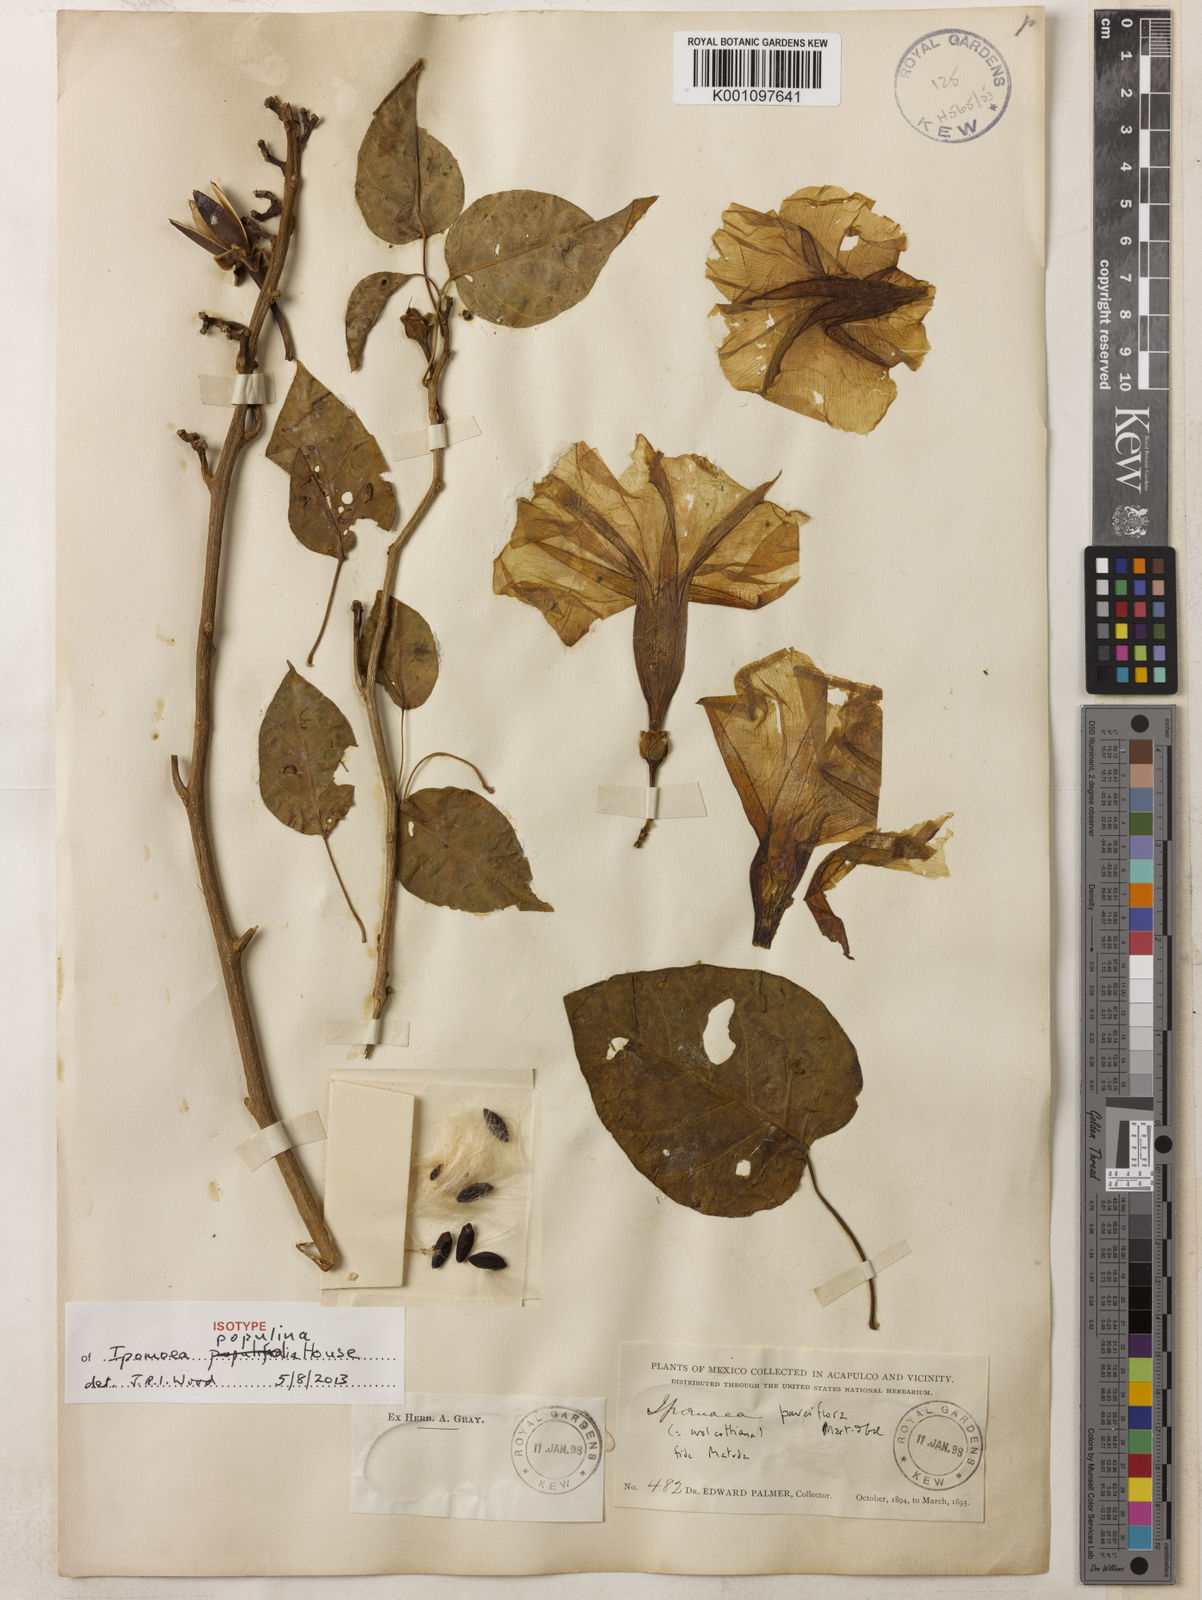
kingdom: Plantae
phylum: Tracheophyta
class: Magnoliopsida
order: Solanales
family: Convolvulaceae
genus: Ipomoea
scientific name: Ipomoea populina
